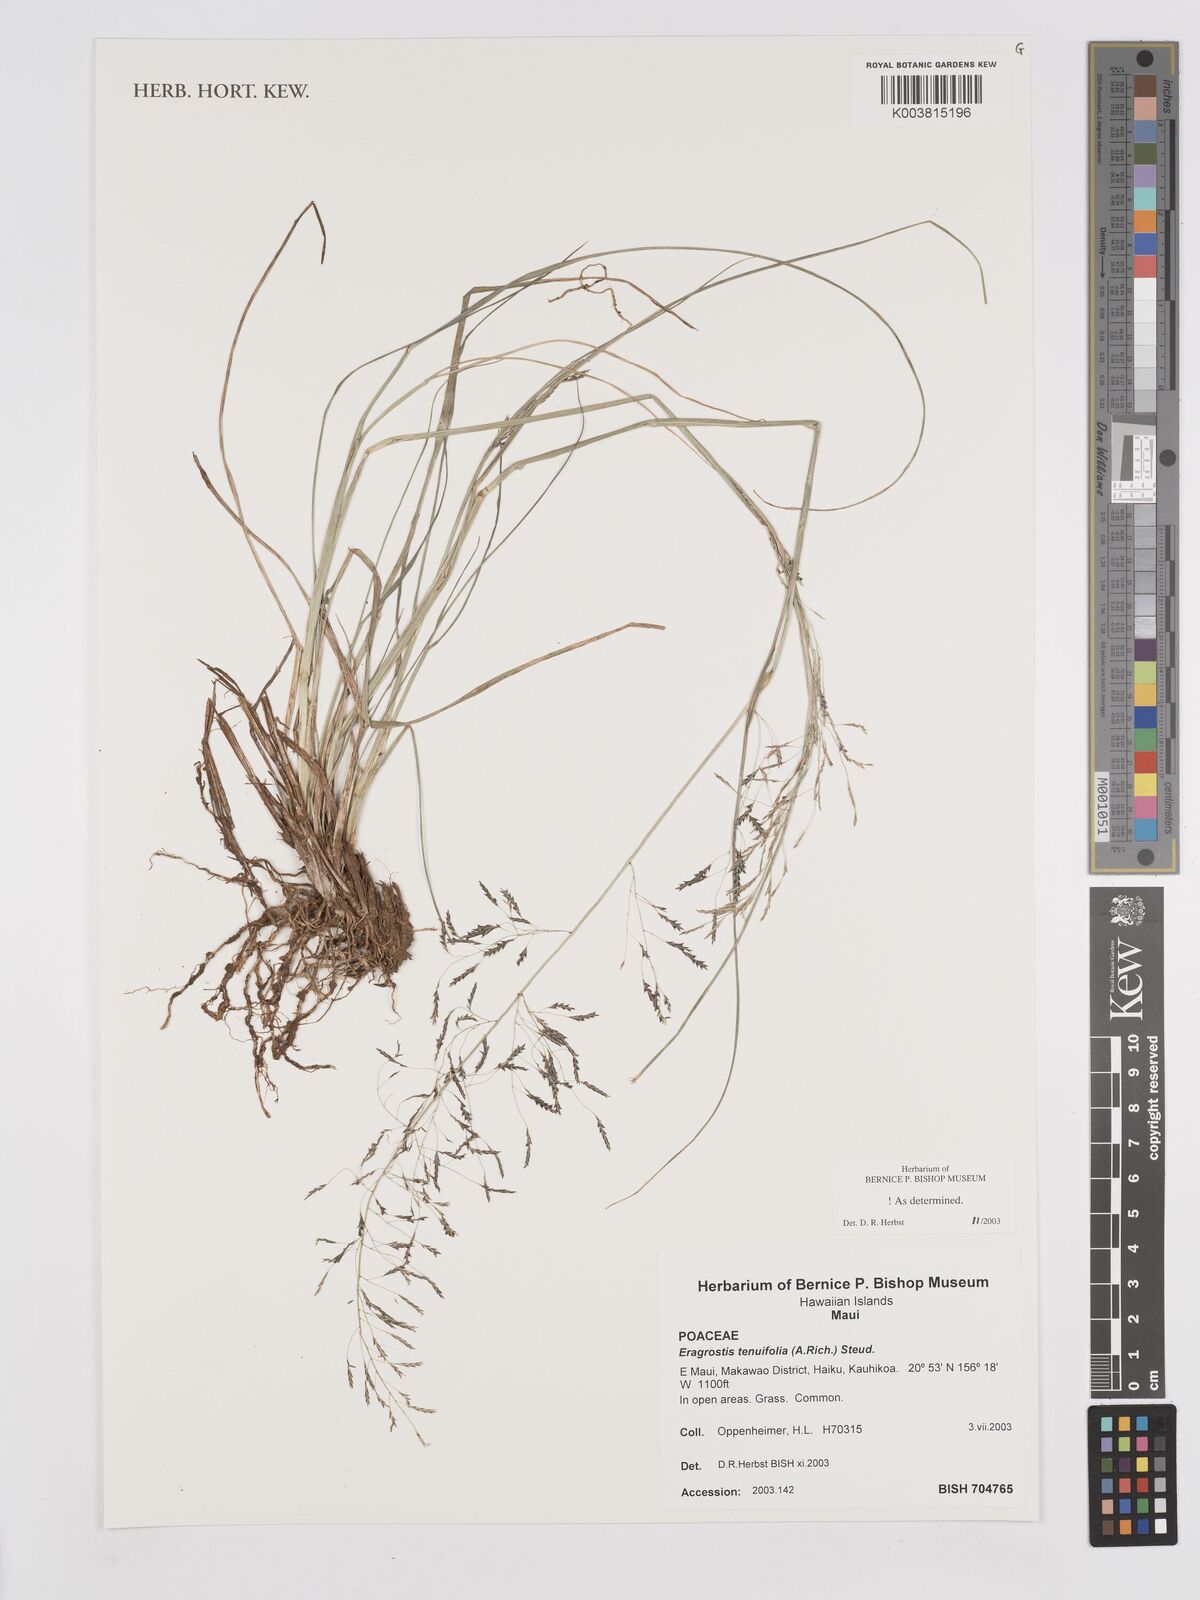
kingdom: Plantae
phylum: Tracheophyta
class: Liliopsida
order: Poales
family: Poaceae
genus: Eragrostis
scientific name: Eragrostis tenuifolia
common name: Elastic grass
